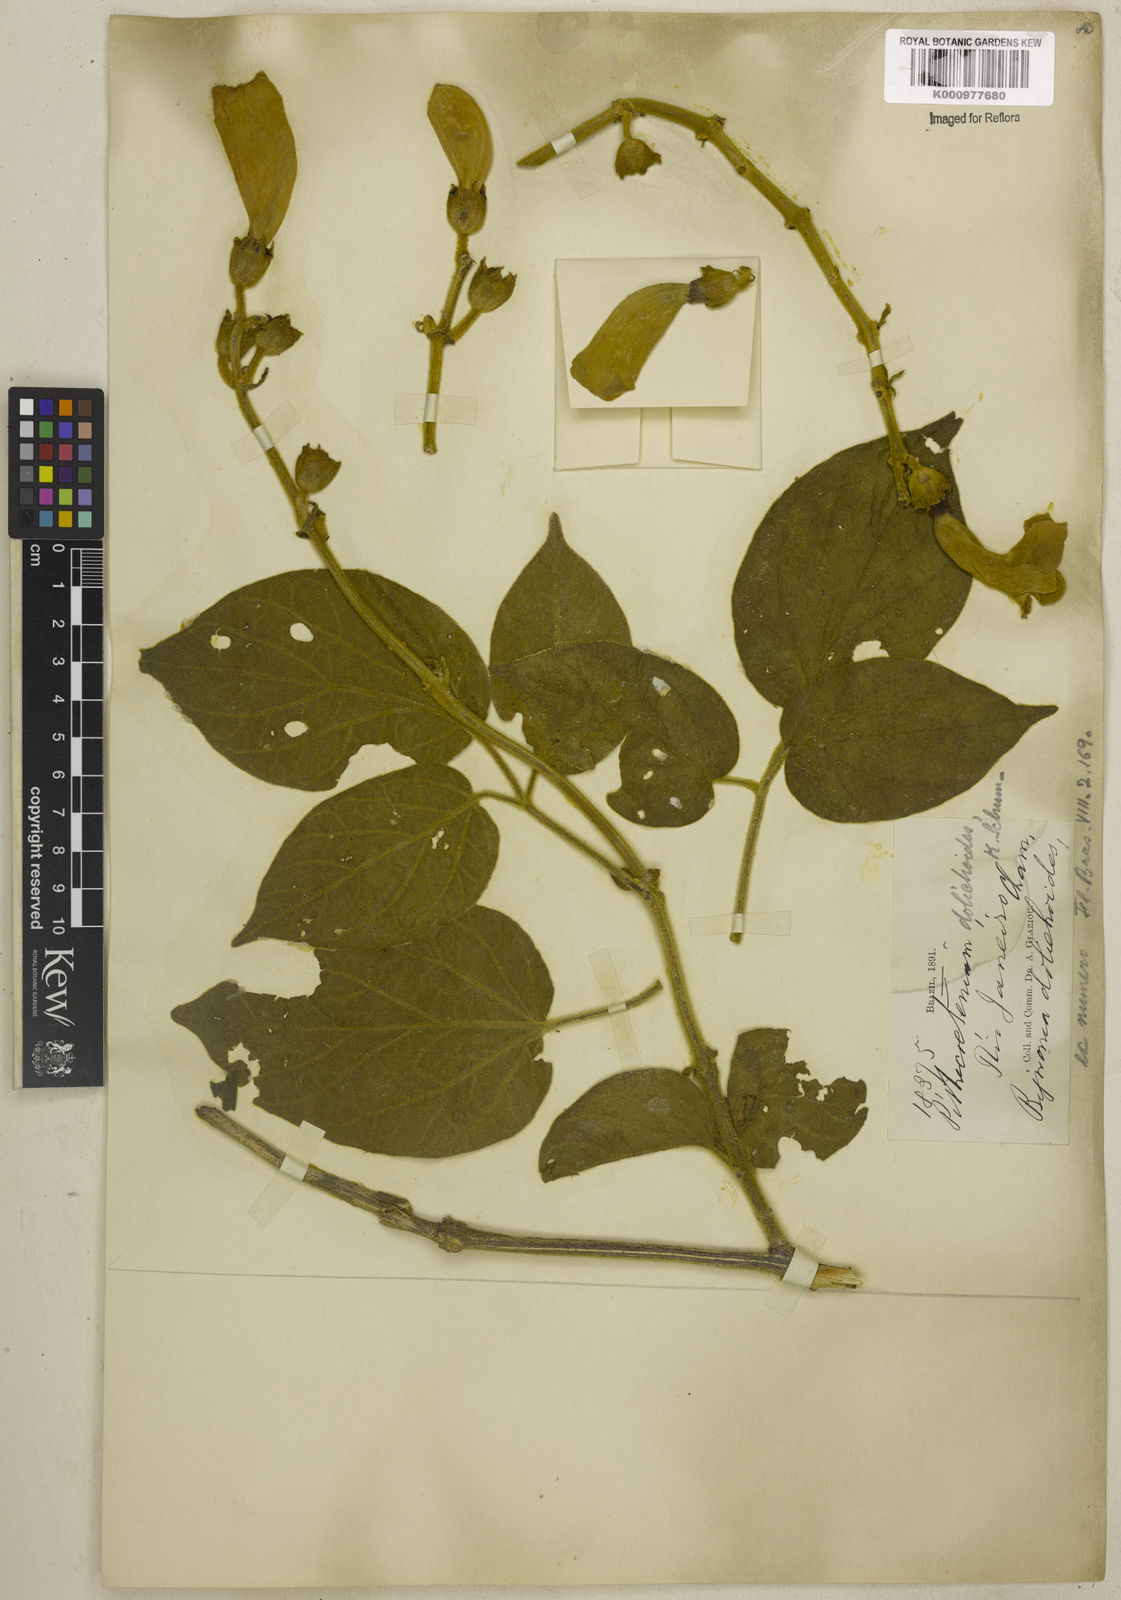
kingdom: Plantae
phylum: Tracheophyta
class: Magnoliopsida
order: Lamiales
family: Bignoniaceae
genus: Amphilophium
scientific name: Amphilophium dolichoides
